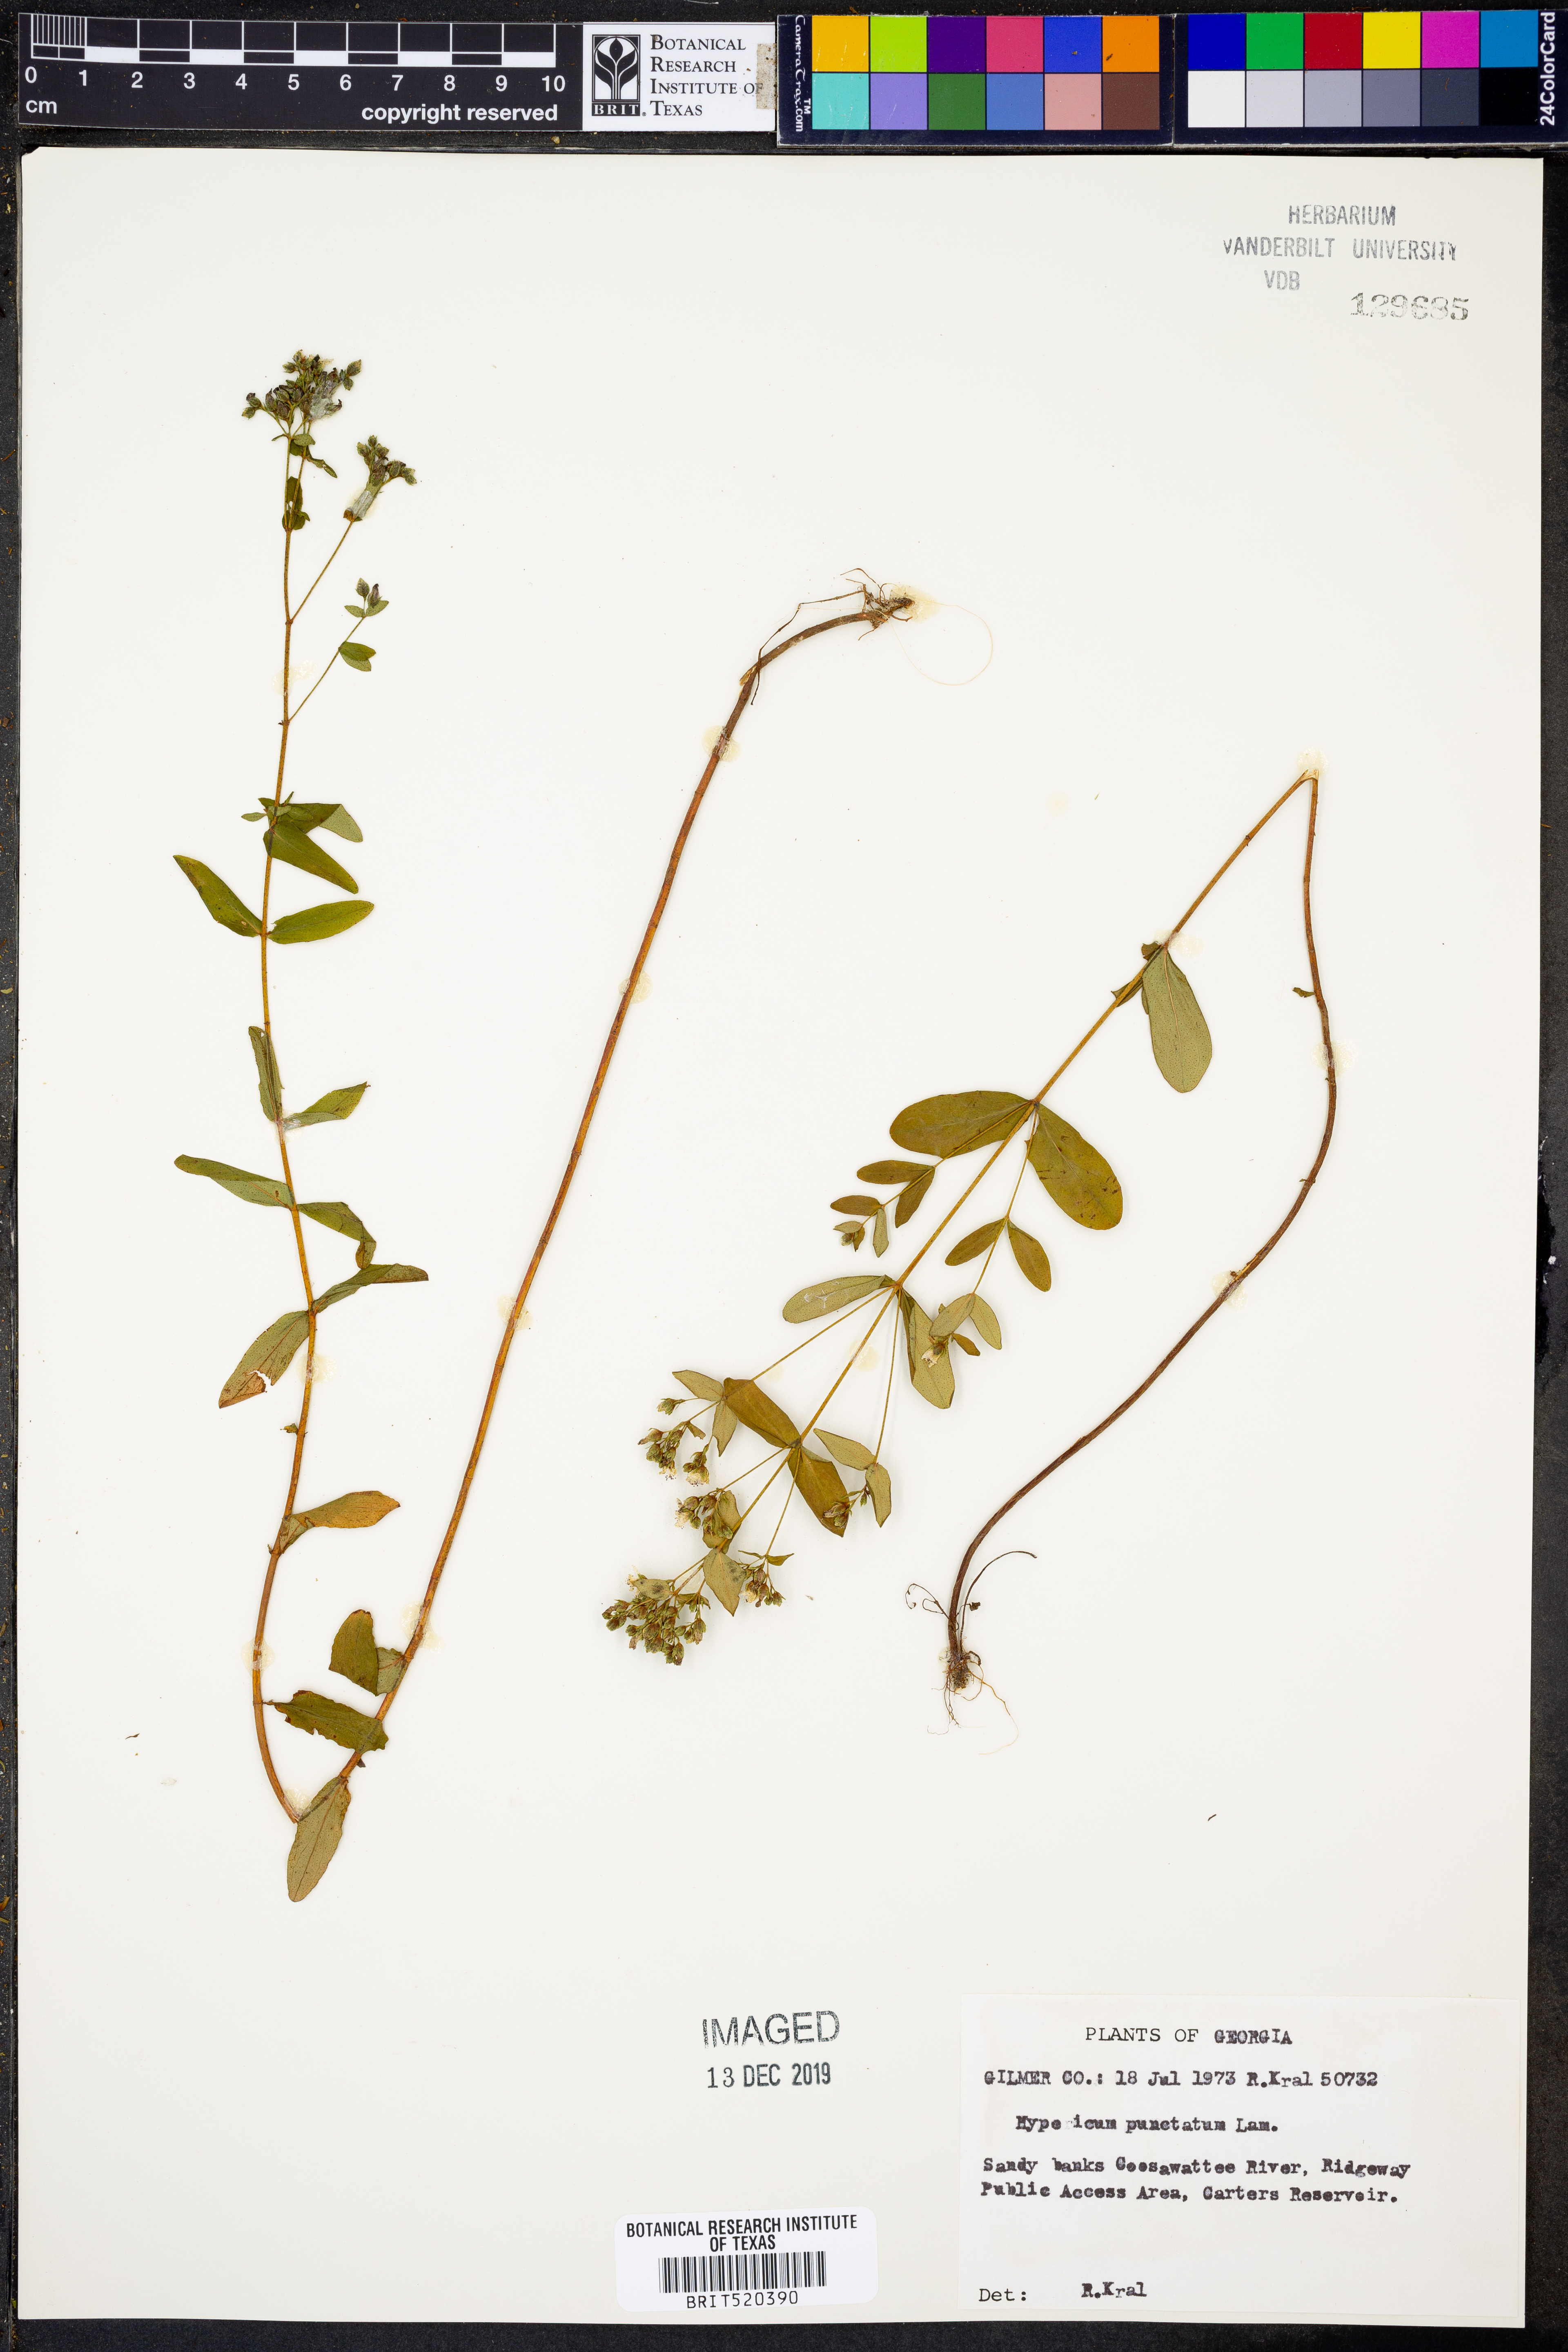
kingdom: Plantae
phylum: Tracheophyta
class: Magnoliopsida
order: Malpighiales
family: Hypericaceae
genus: Hypericum
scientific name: Hypericum punctatum
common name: Spotted st. john's-wort
